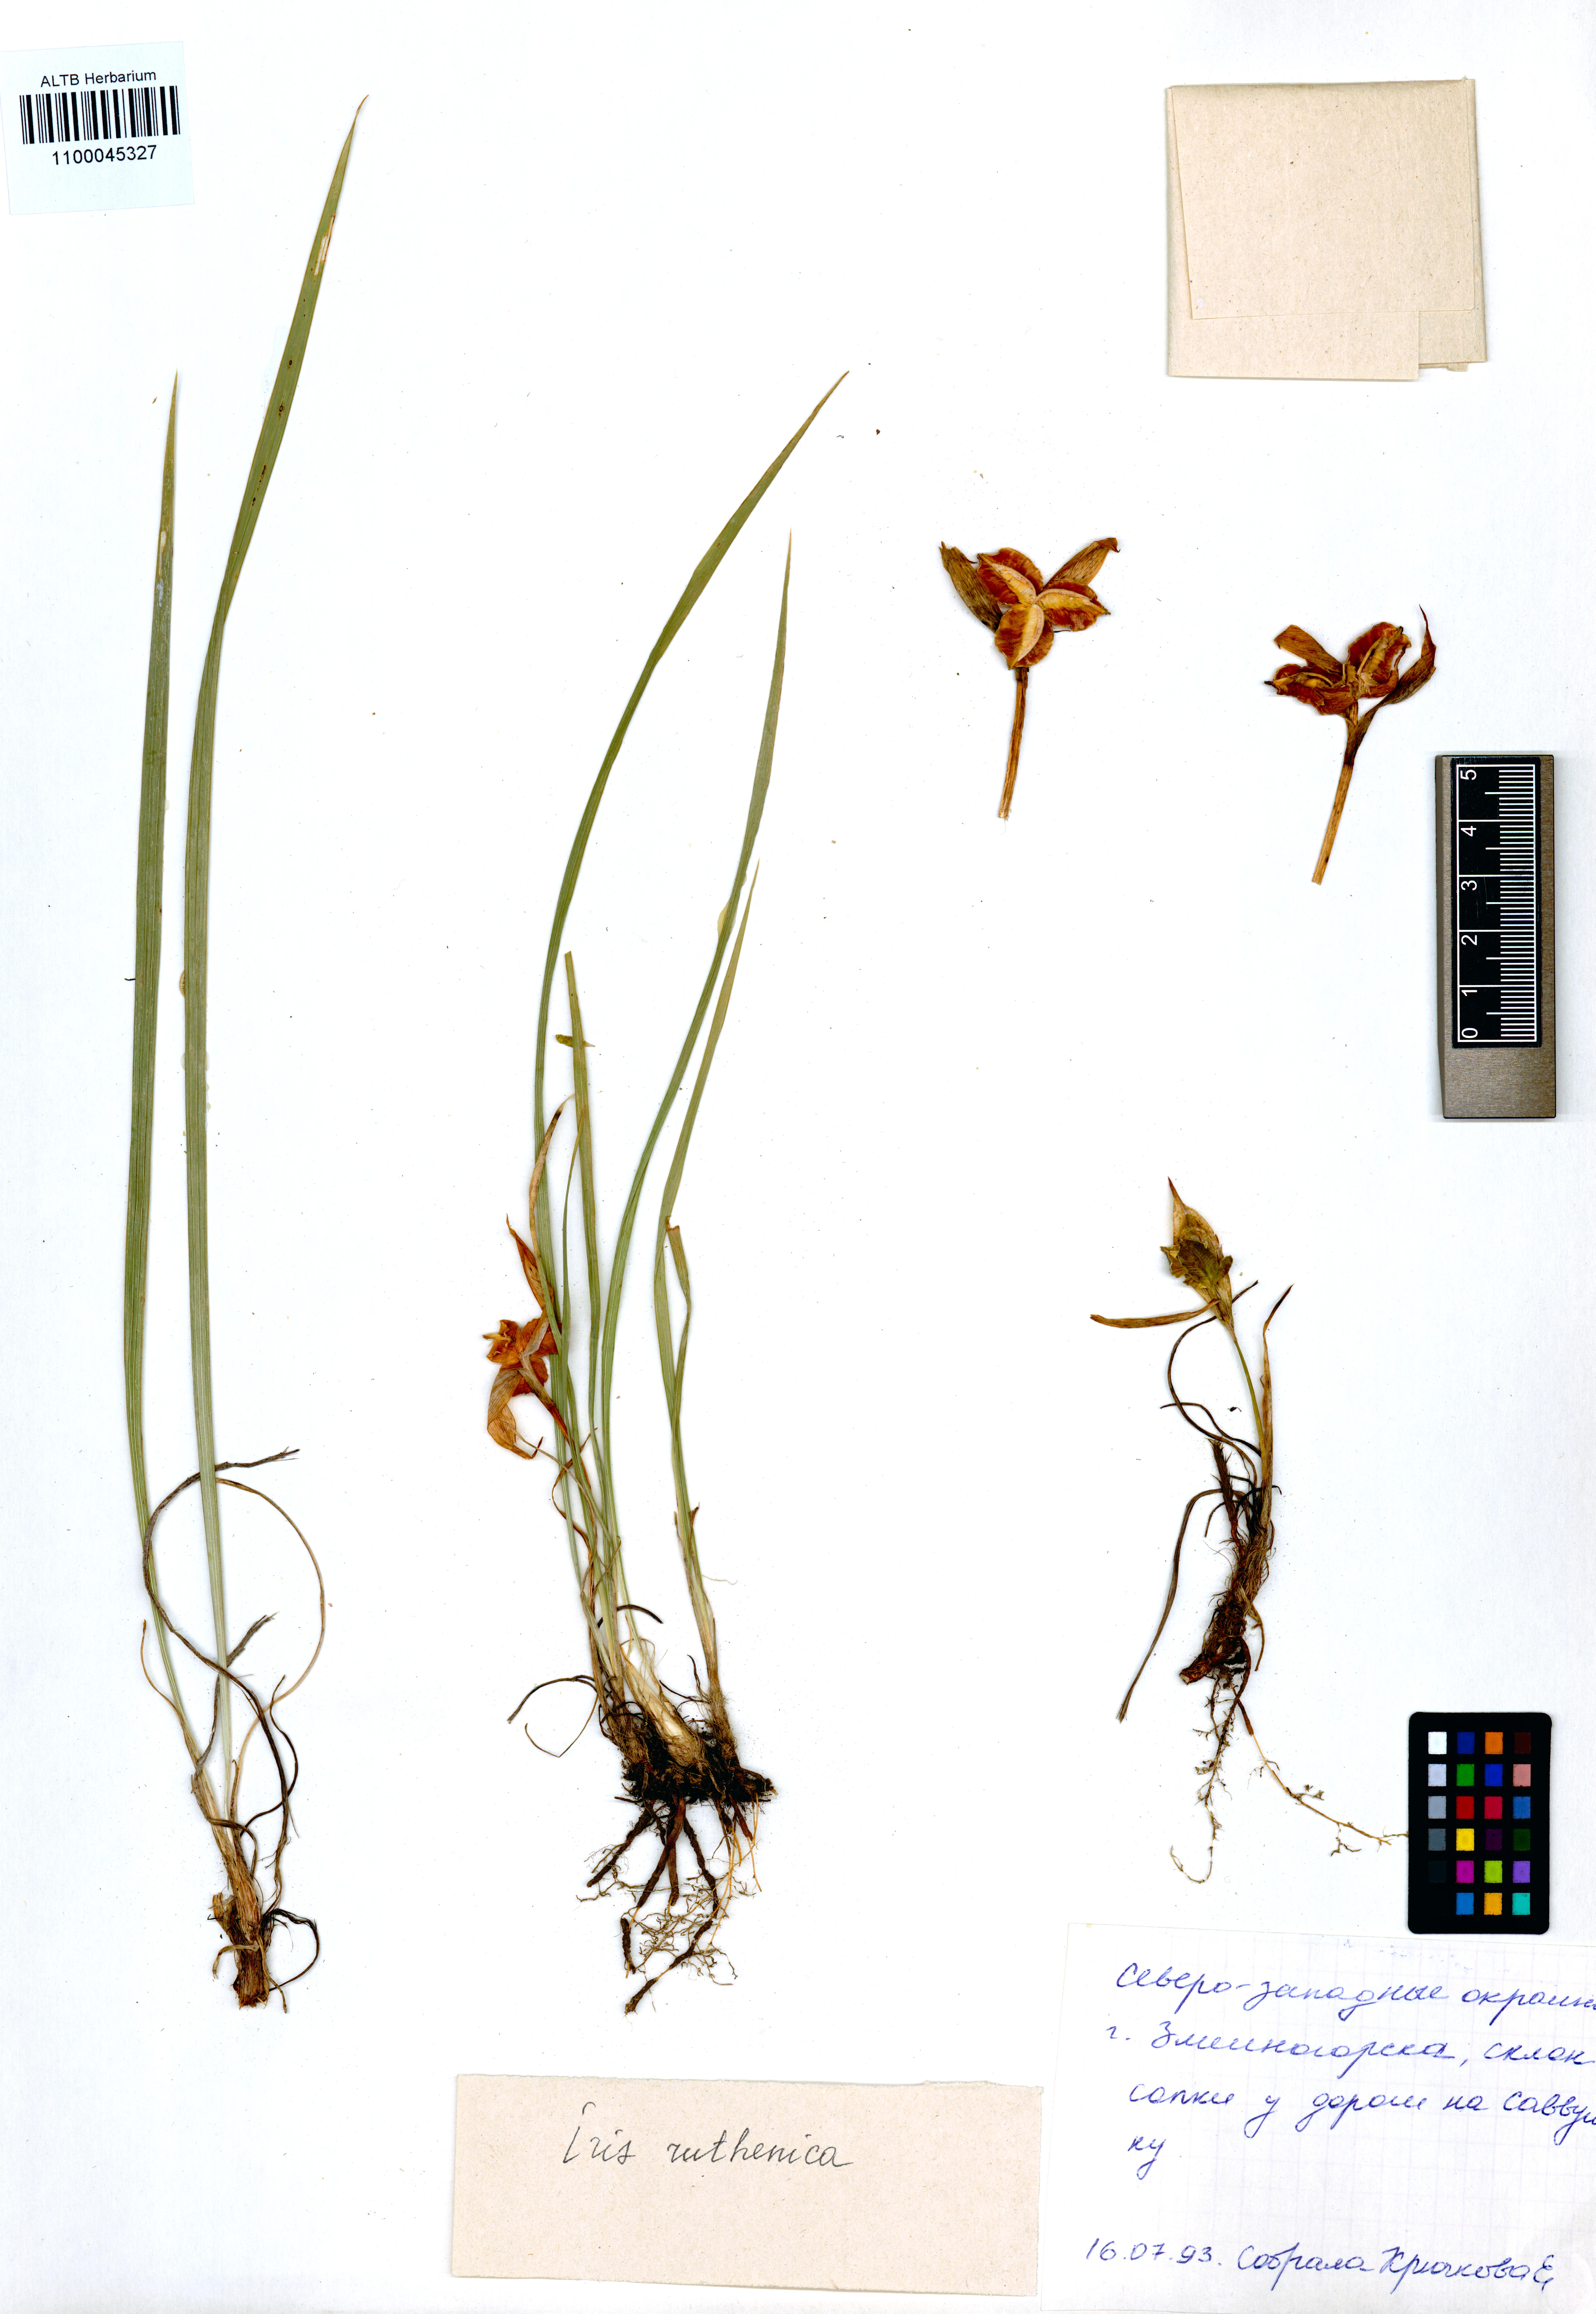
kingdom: Plantae
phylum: Tracheophyta
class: Liliopsida
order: Asparagales
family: Iridaceae
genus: Iris
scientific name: Iris ruthenica
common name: Purple-bract iris
